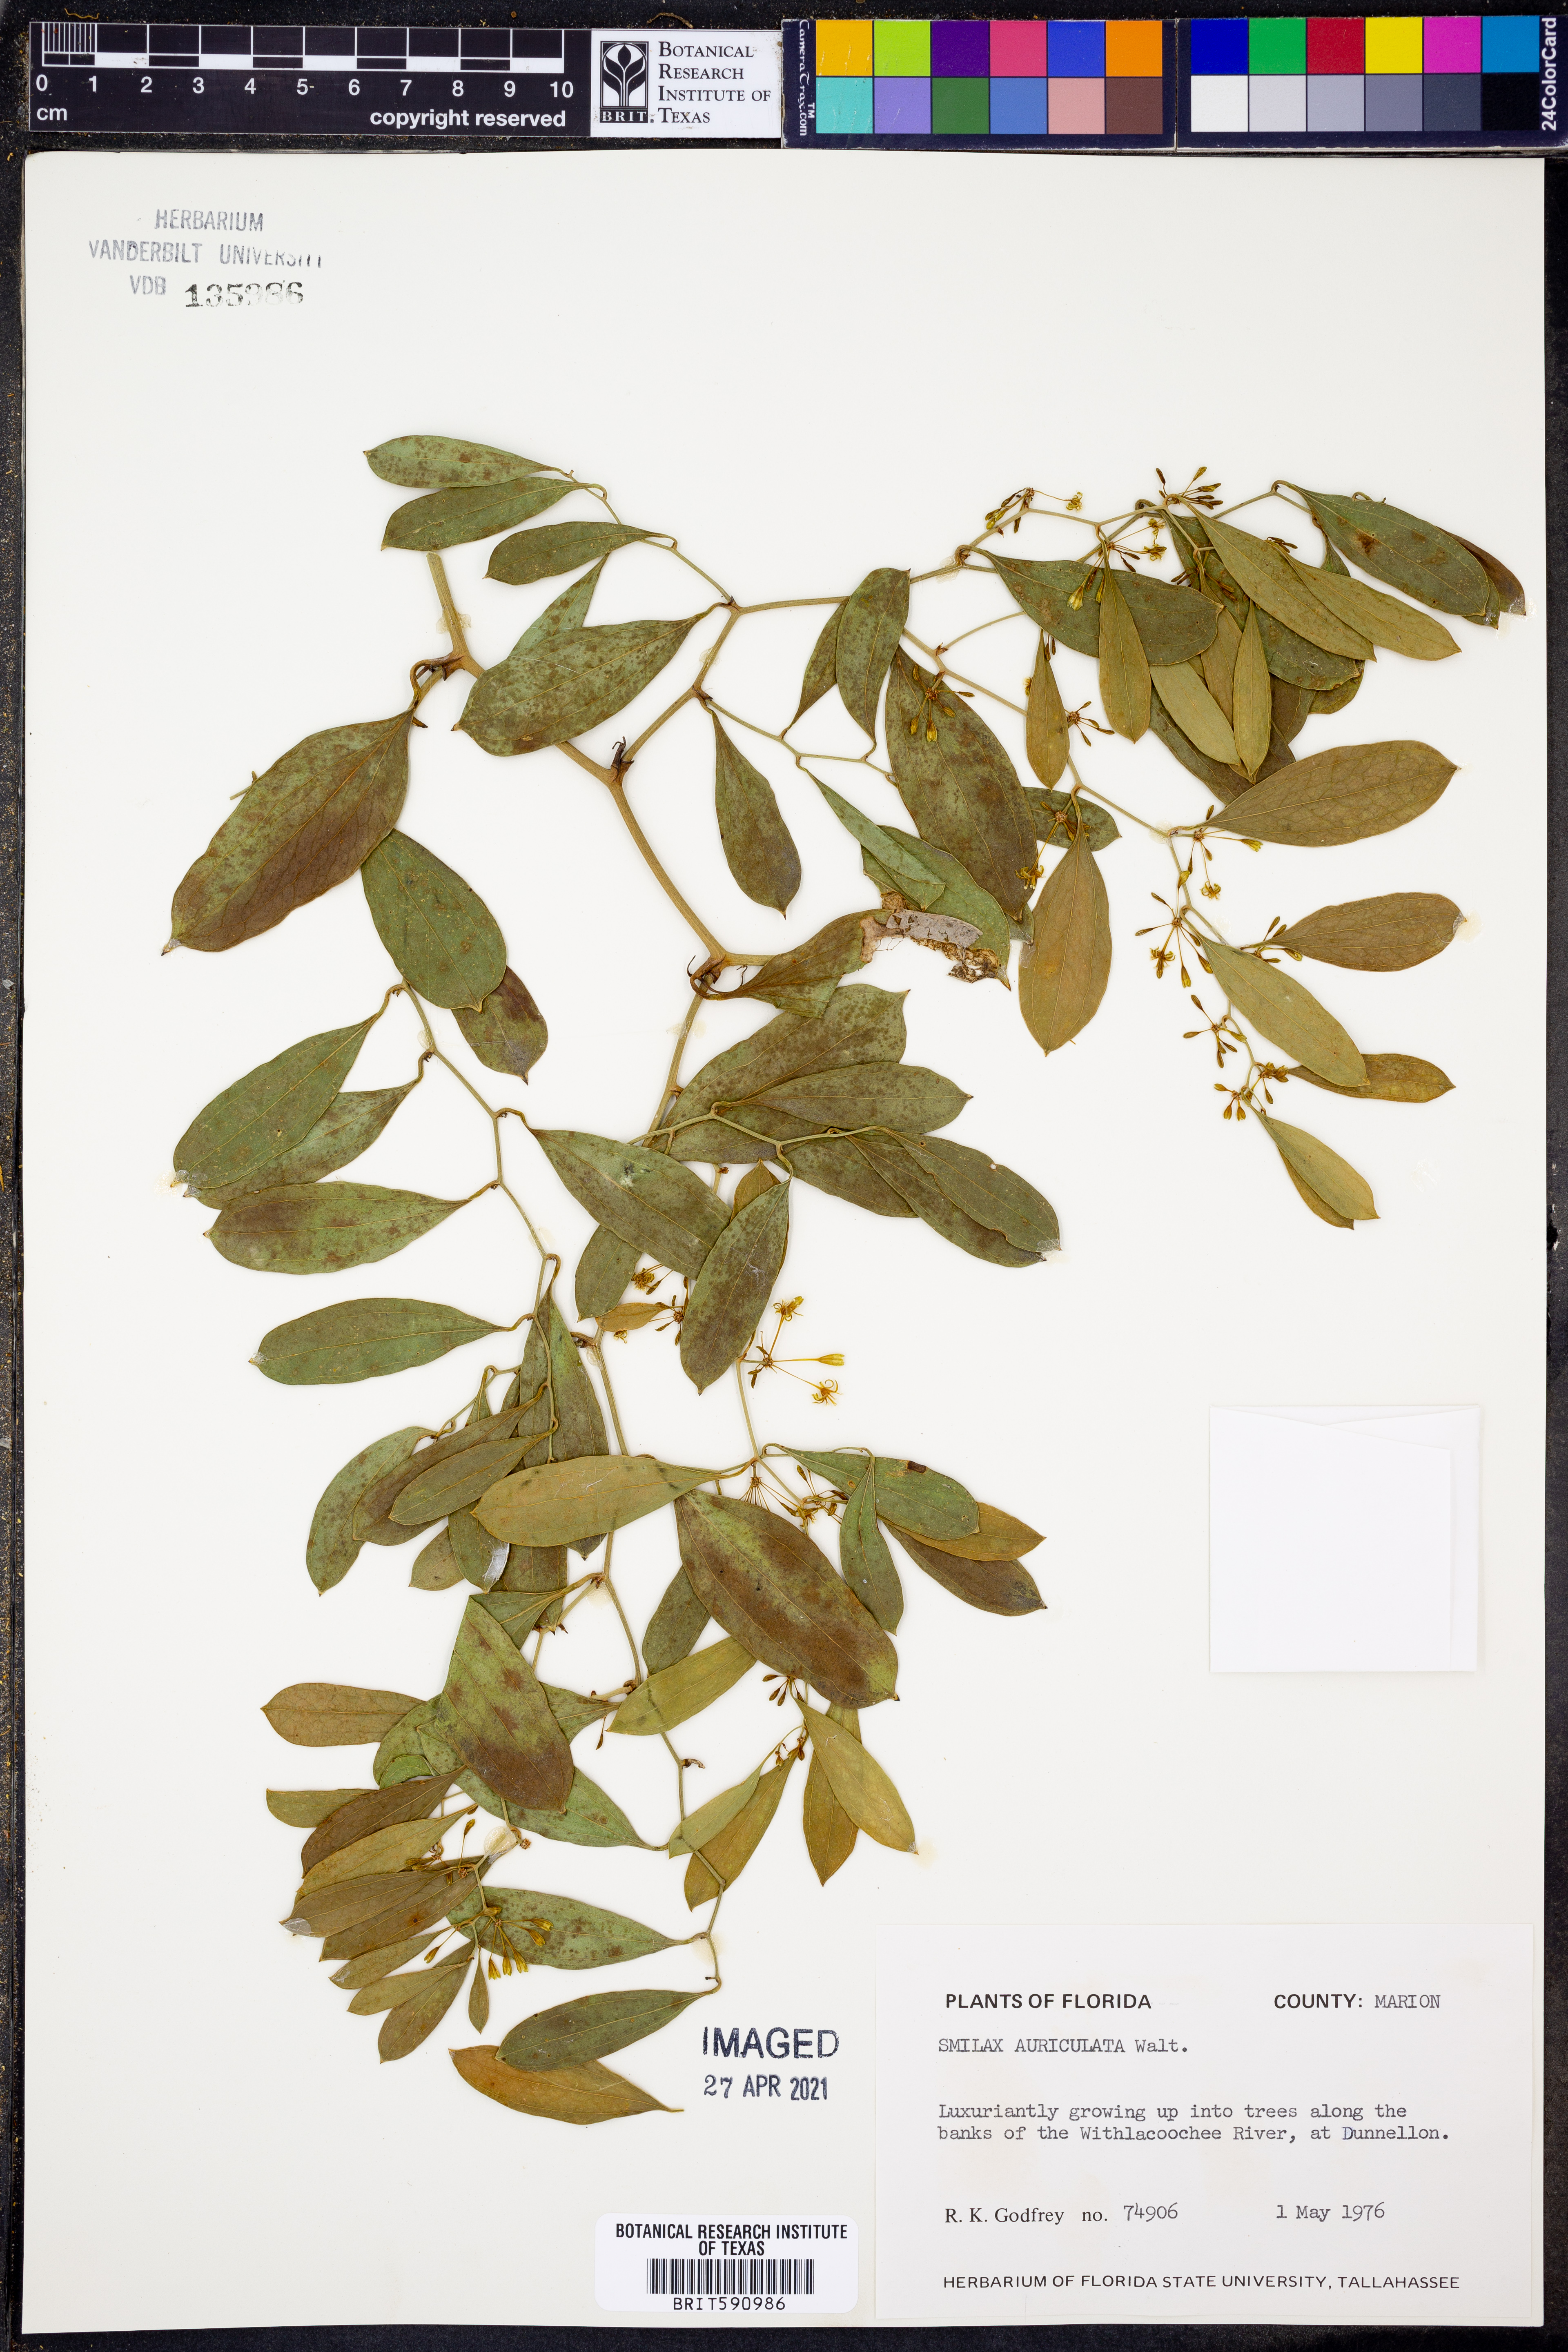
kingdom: Plantae
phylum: Tracheophyta
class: Liliopsida
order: Liliales
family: Smilacaceae
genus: Smilax
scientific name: Smilax auriculata
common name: Wild bamboo
